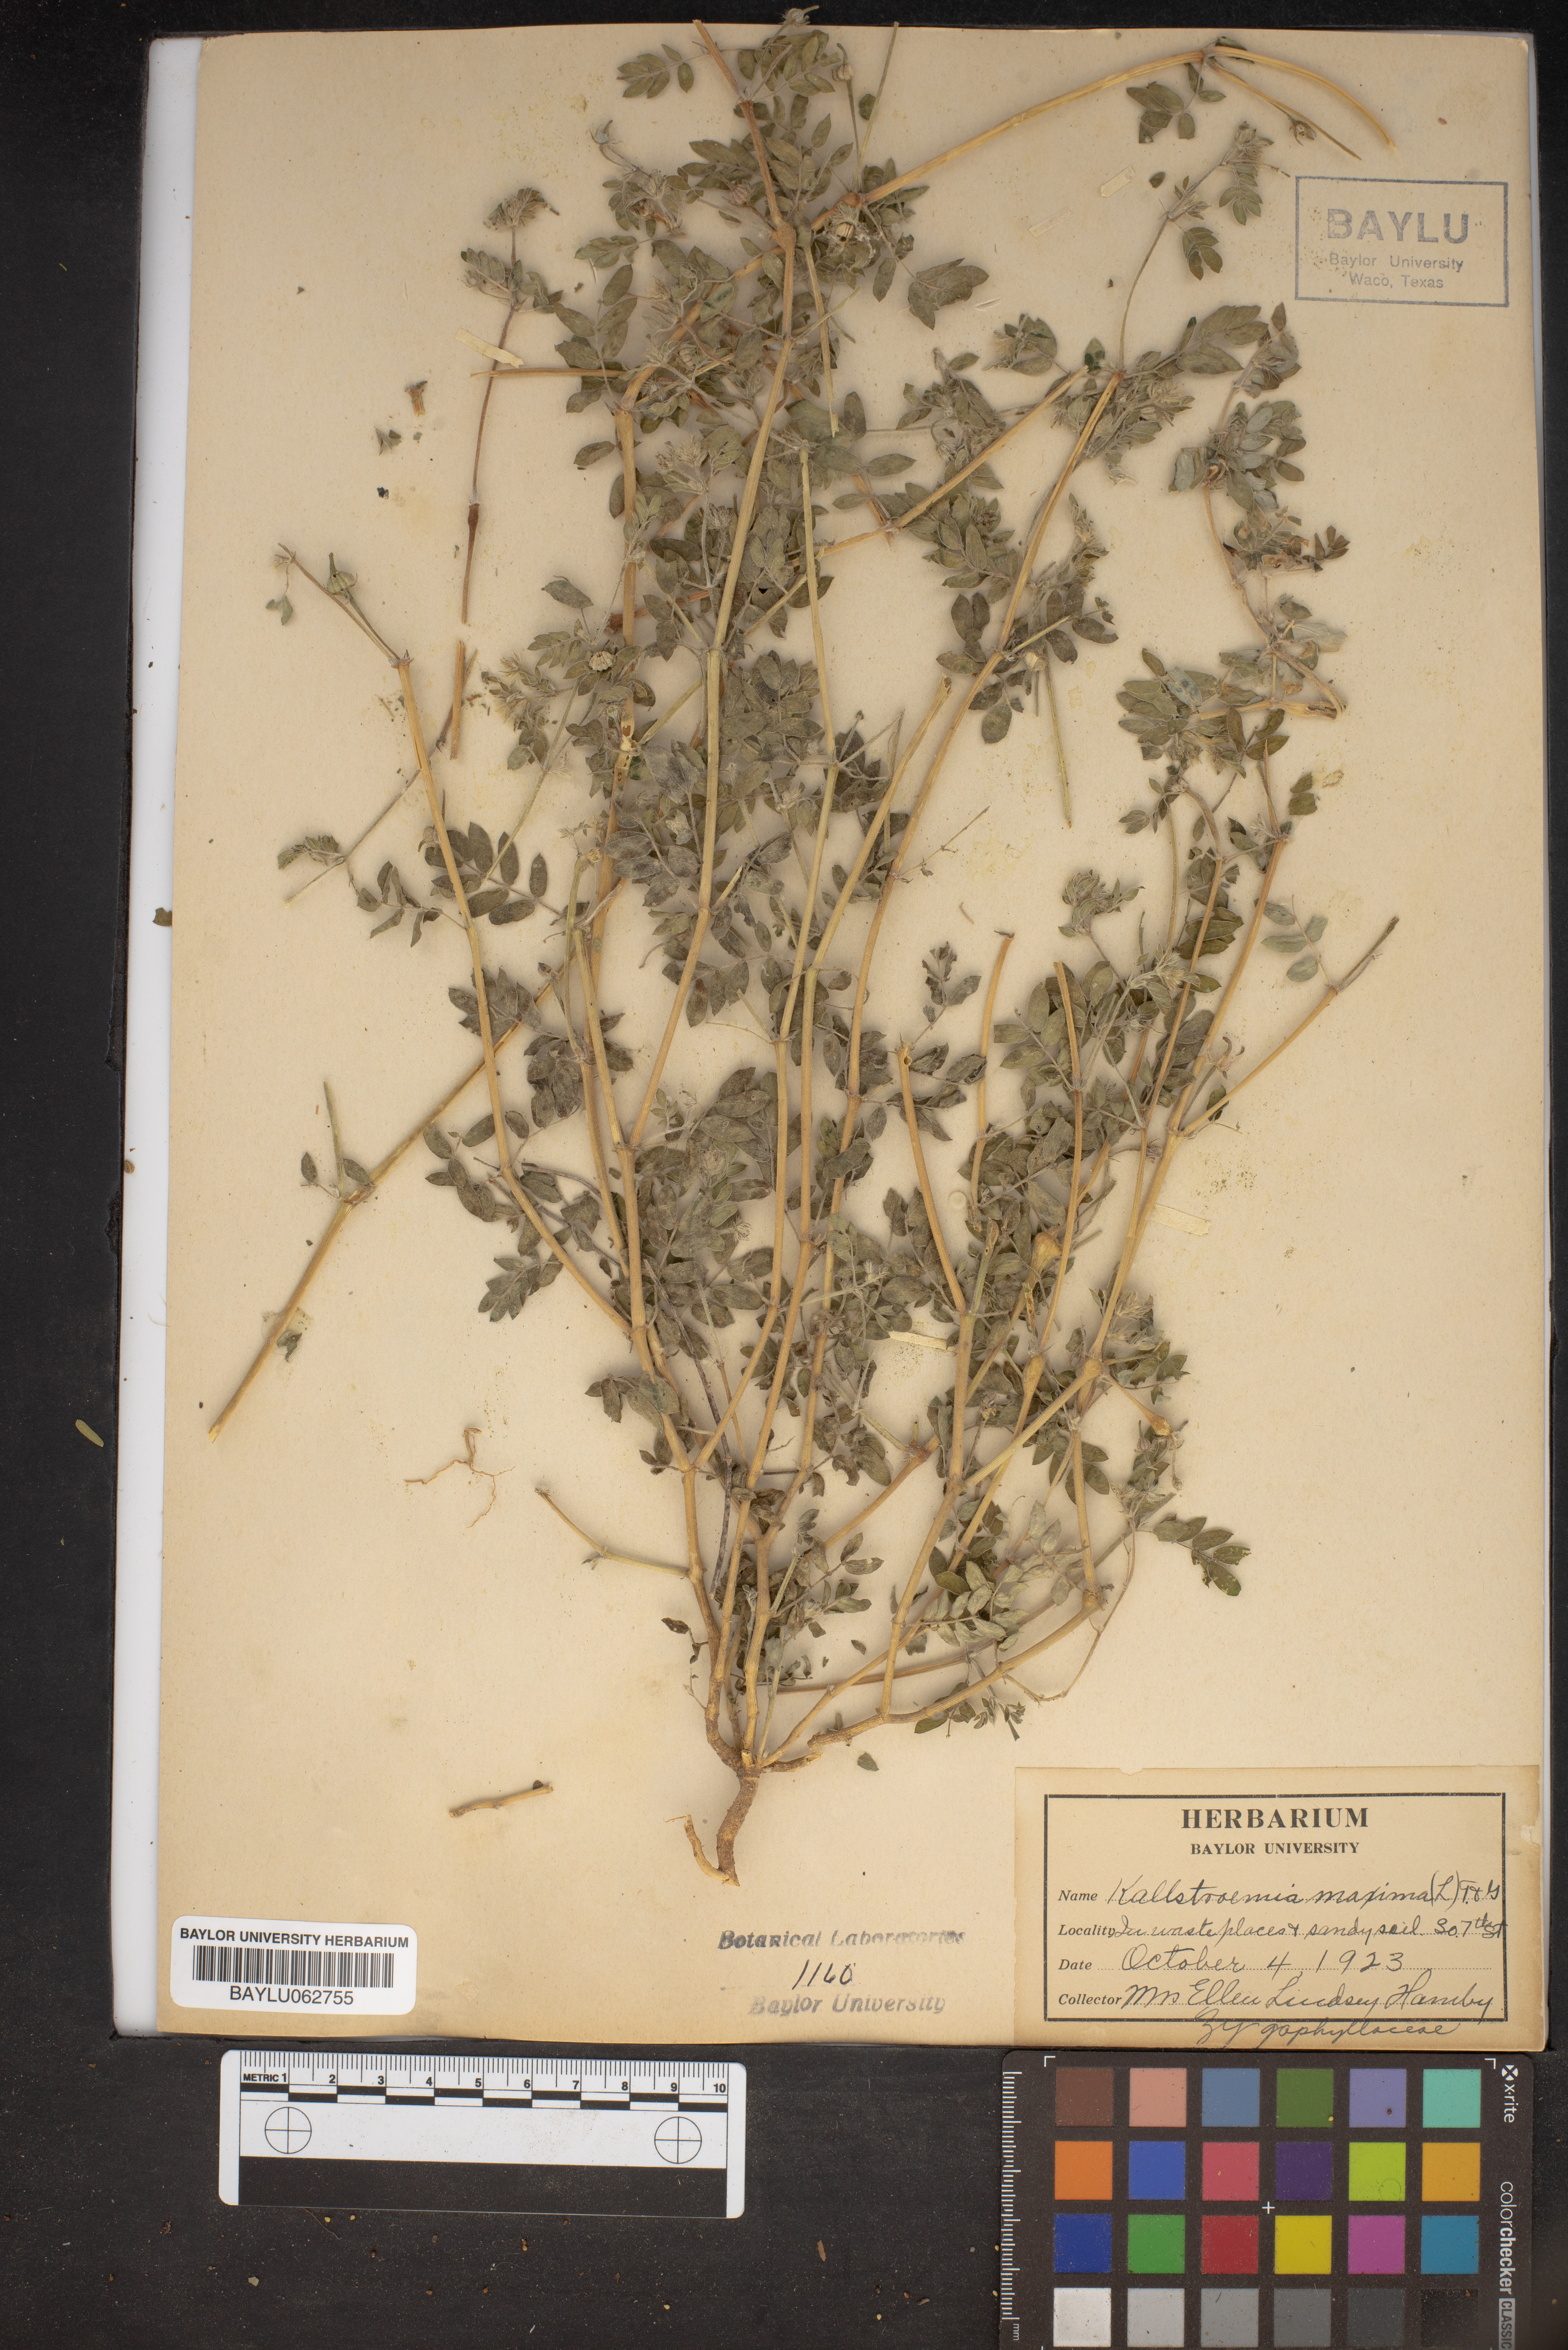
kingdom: Plantae
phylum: Tracheophyta
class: Magnoliopsida
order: Zygophyllales
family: Zygophyllaceae
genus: Kallstroemia
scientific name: Kallstroemia maxima
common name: Big caltropa
